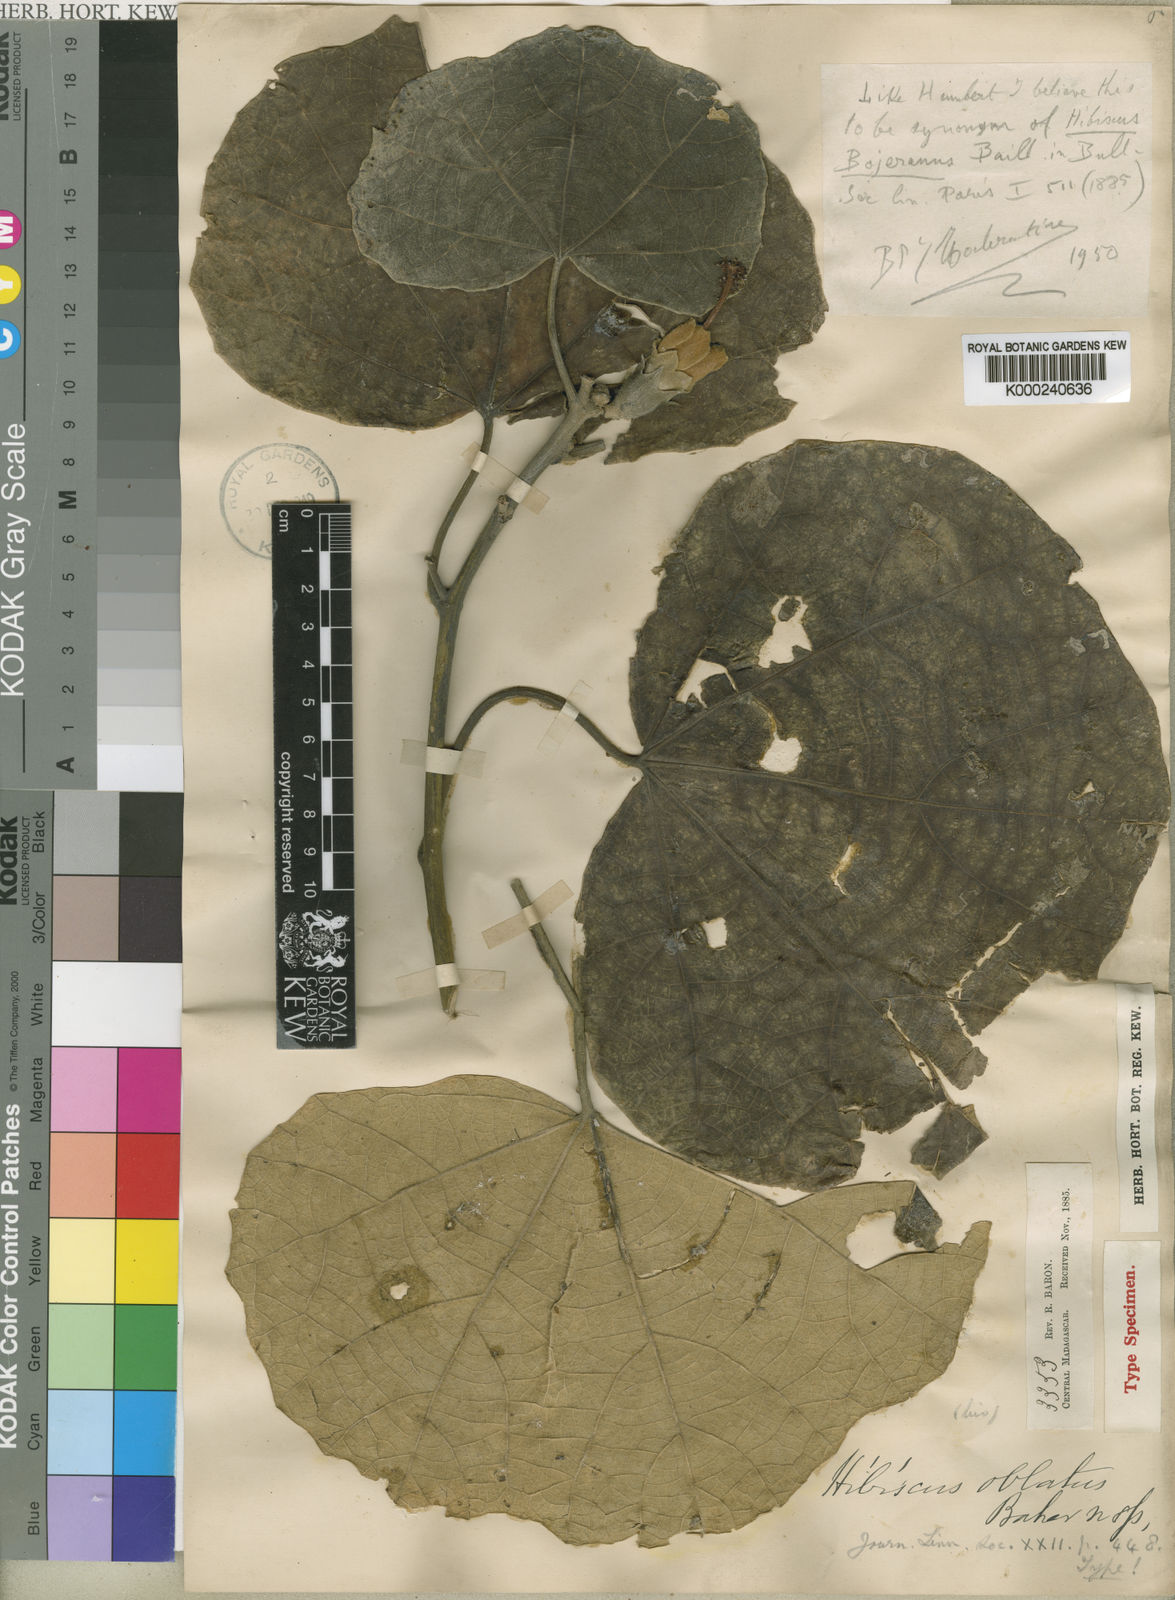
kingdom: Plantae
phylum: Tracheophyta
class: Magnoliopsida
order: Malvales
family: Malvaceae
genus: Hibiscus
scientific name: Hibiscus
